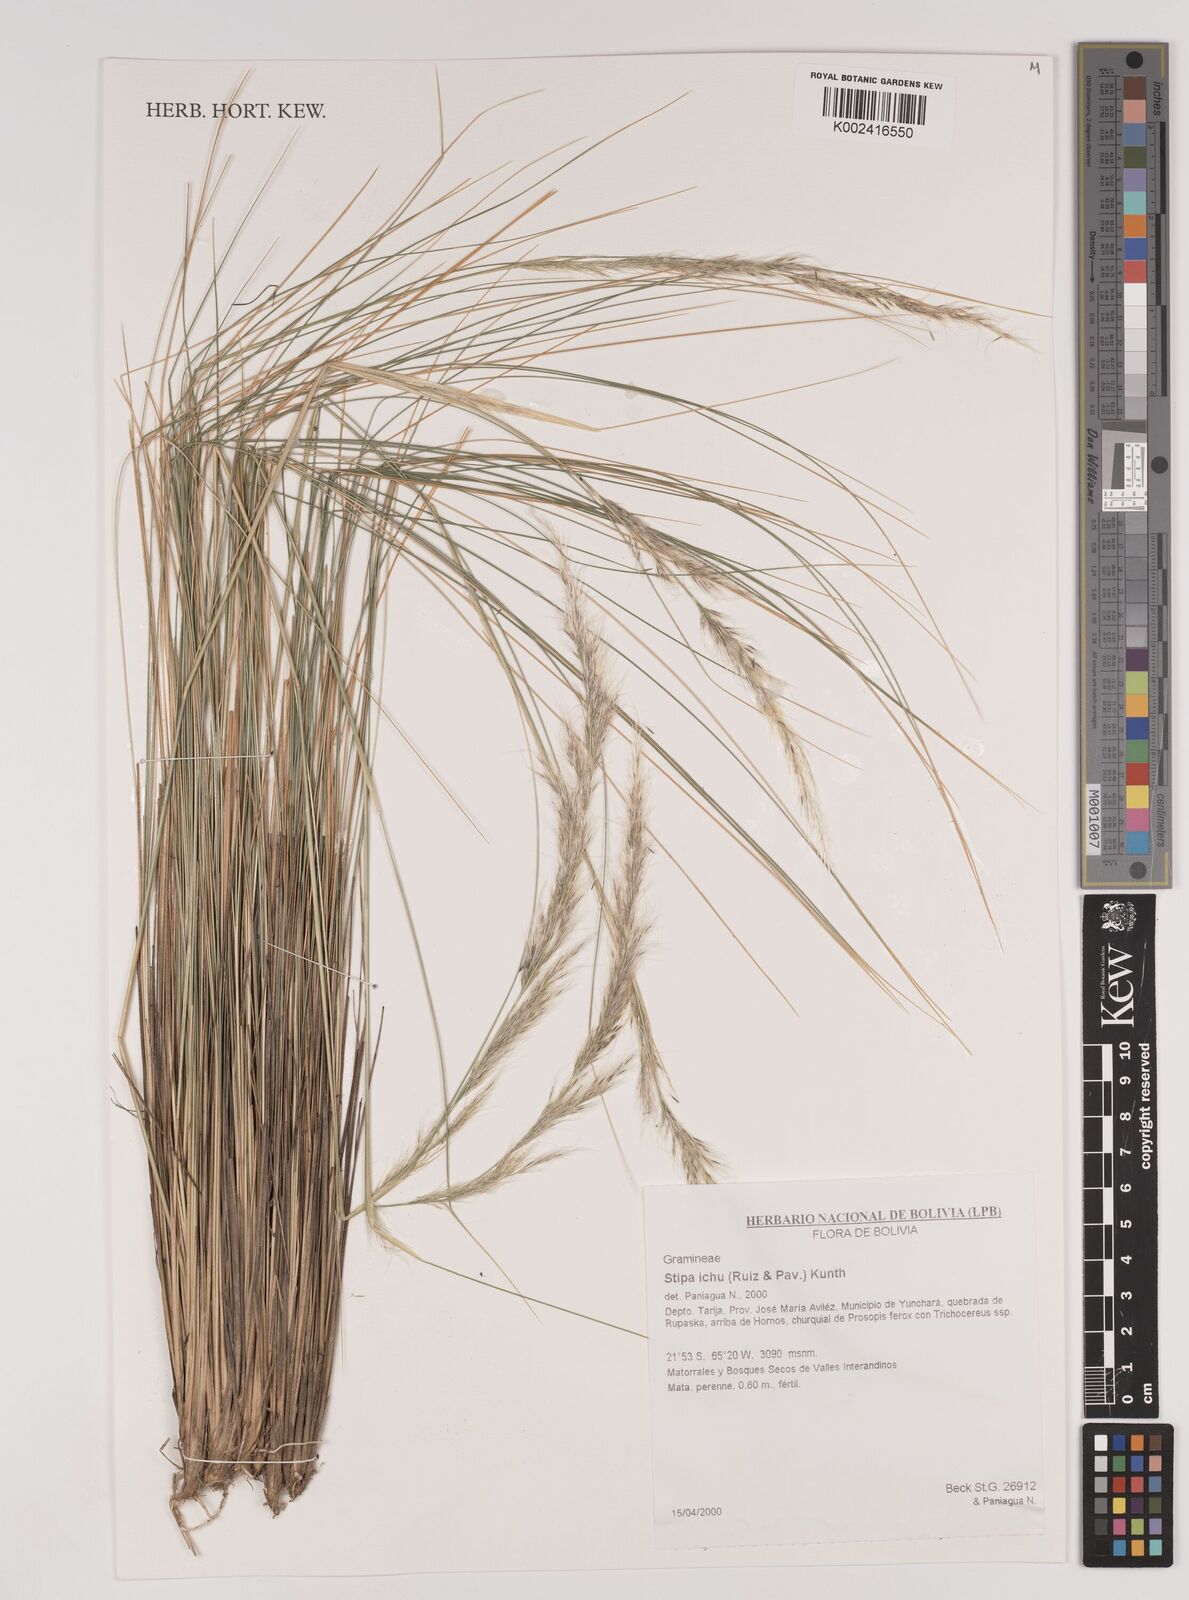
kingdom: Plantae
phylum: Tracheophyta
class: Liliopsida
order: Poales
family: Poaceae
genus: Jarava
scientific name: Jarava ichu
